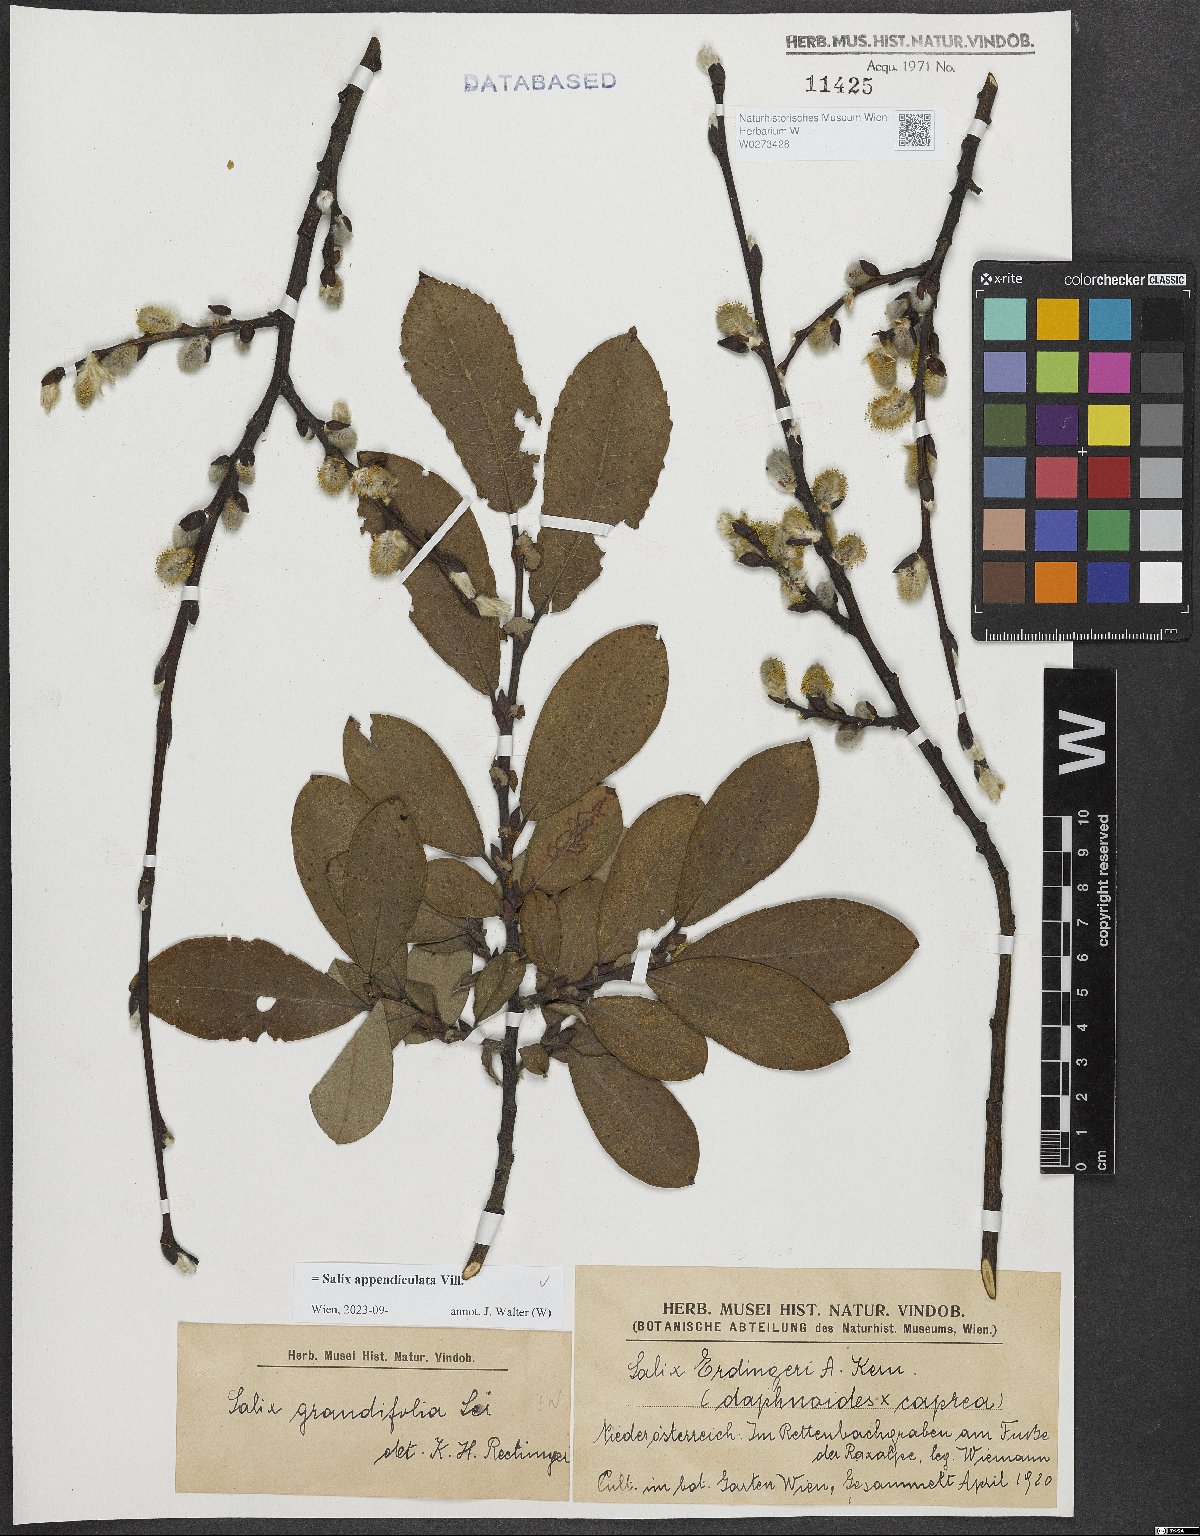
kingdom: Plantae
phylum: Tracheophyta
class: Magnoliopsida
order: Malpighiales
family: Salicaceae
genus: Salix
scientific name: Salix appendiculata
